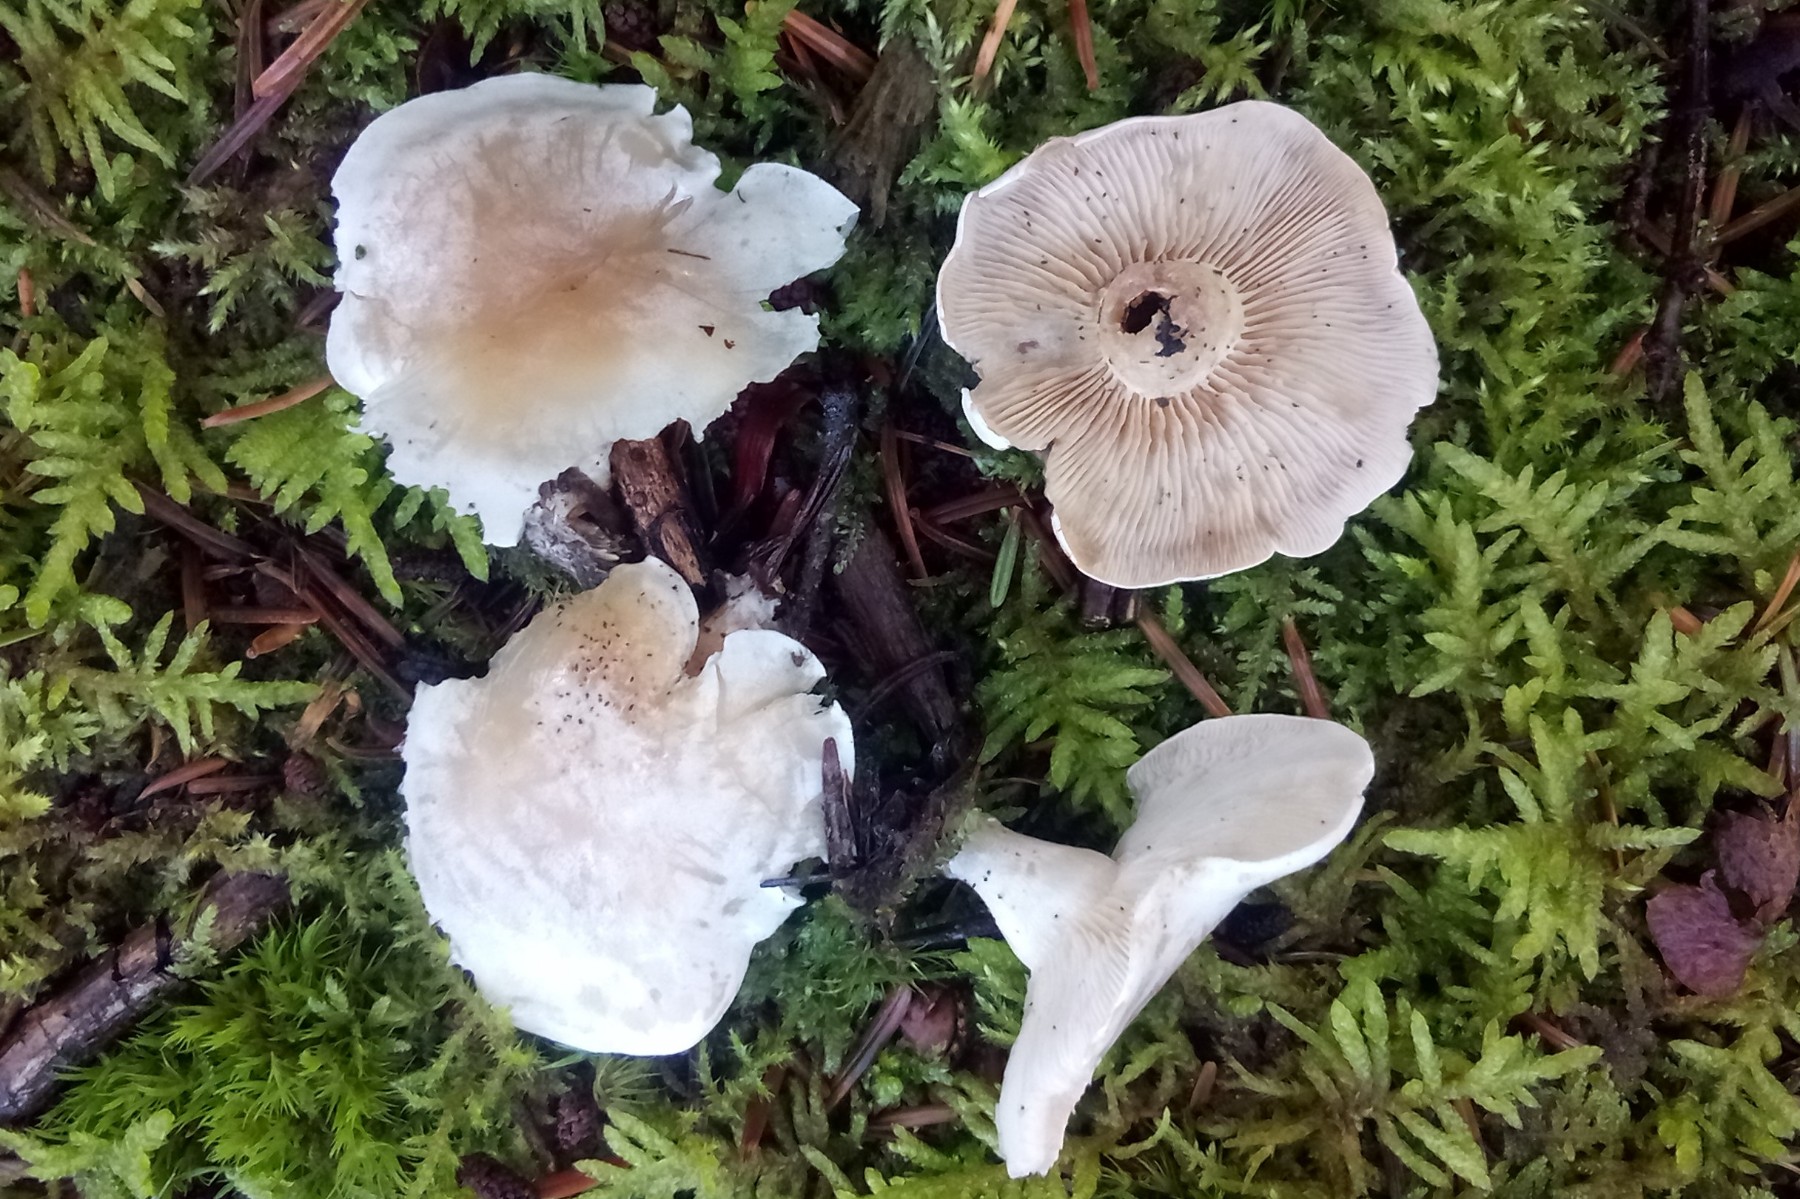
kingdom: Fungi
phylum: Basidiomycota
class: Agaricomycetes
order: Agaricales
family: Tricholomataceae
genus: Clitocybe
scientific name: Clitocybe phyllophila
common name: løv-tragthat
